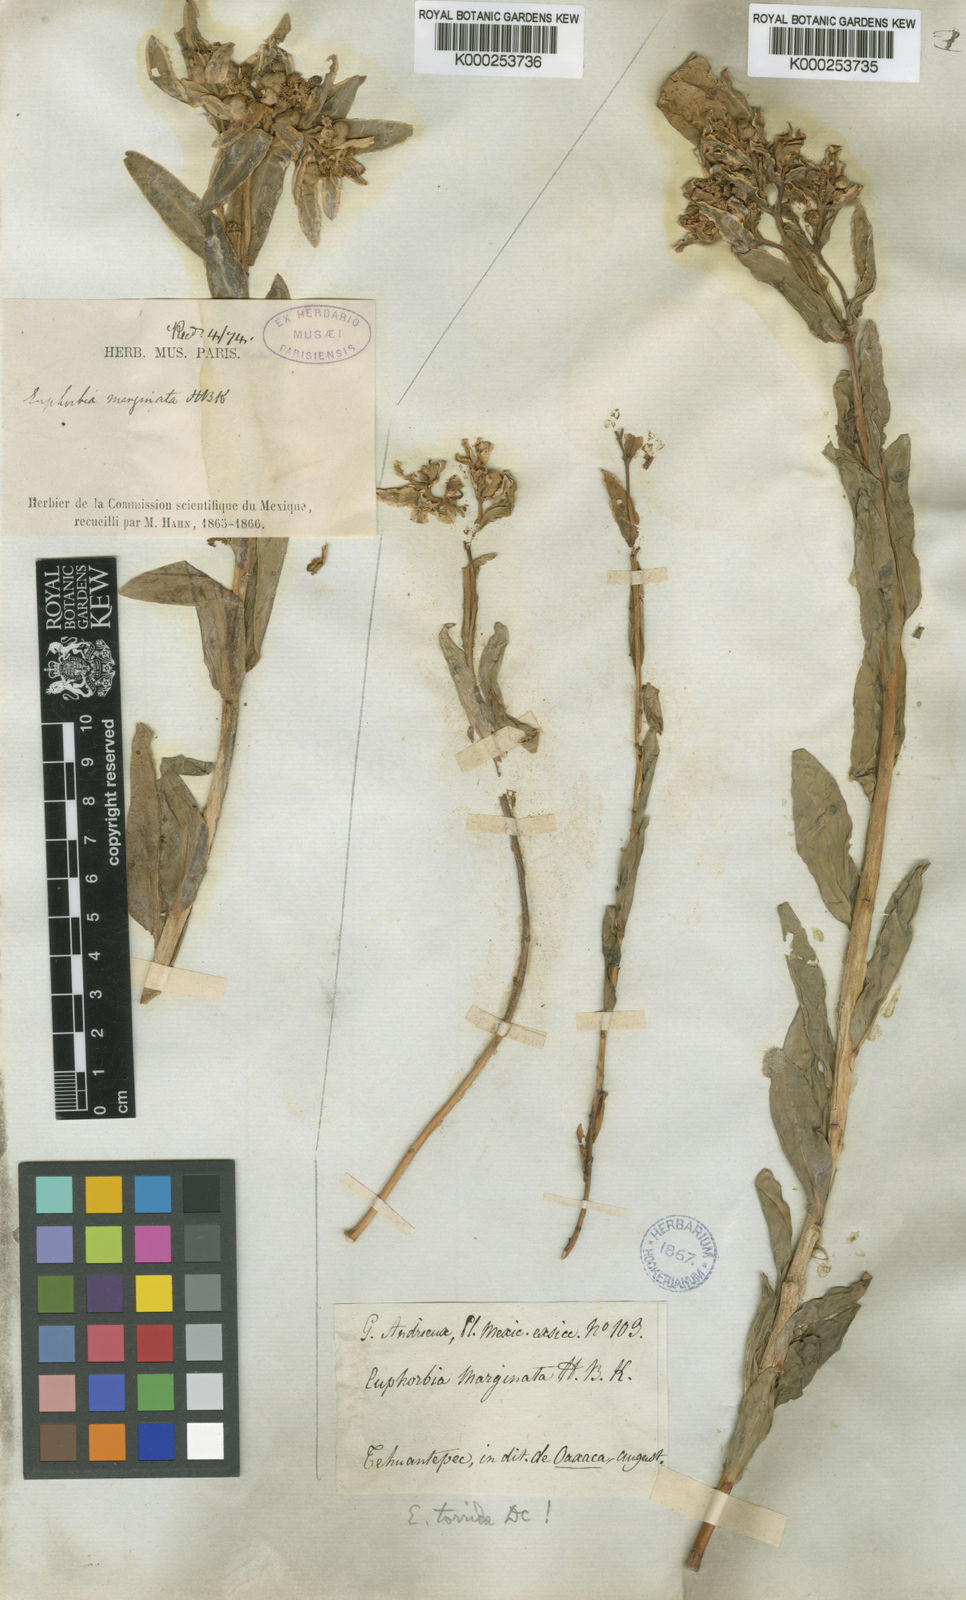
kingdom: Plantae
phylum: Tracheophyta
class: Magnoliopsida
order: Malpighiales
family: Euphorbiaceae
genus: Euphorbia
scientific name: Euphorbia marginata
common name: Ghostweed
